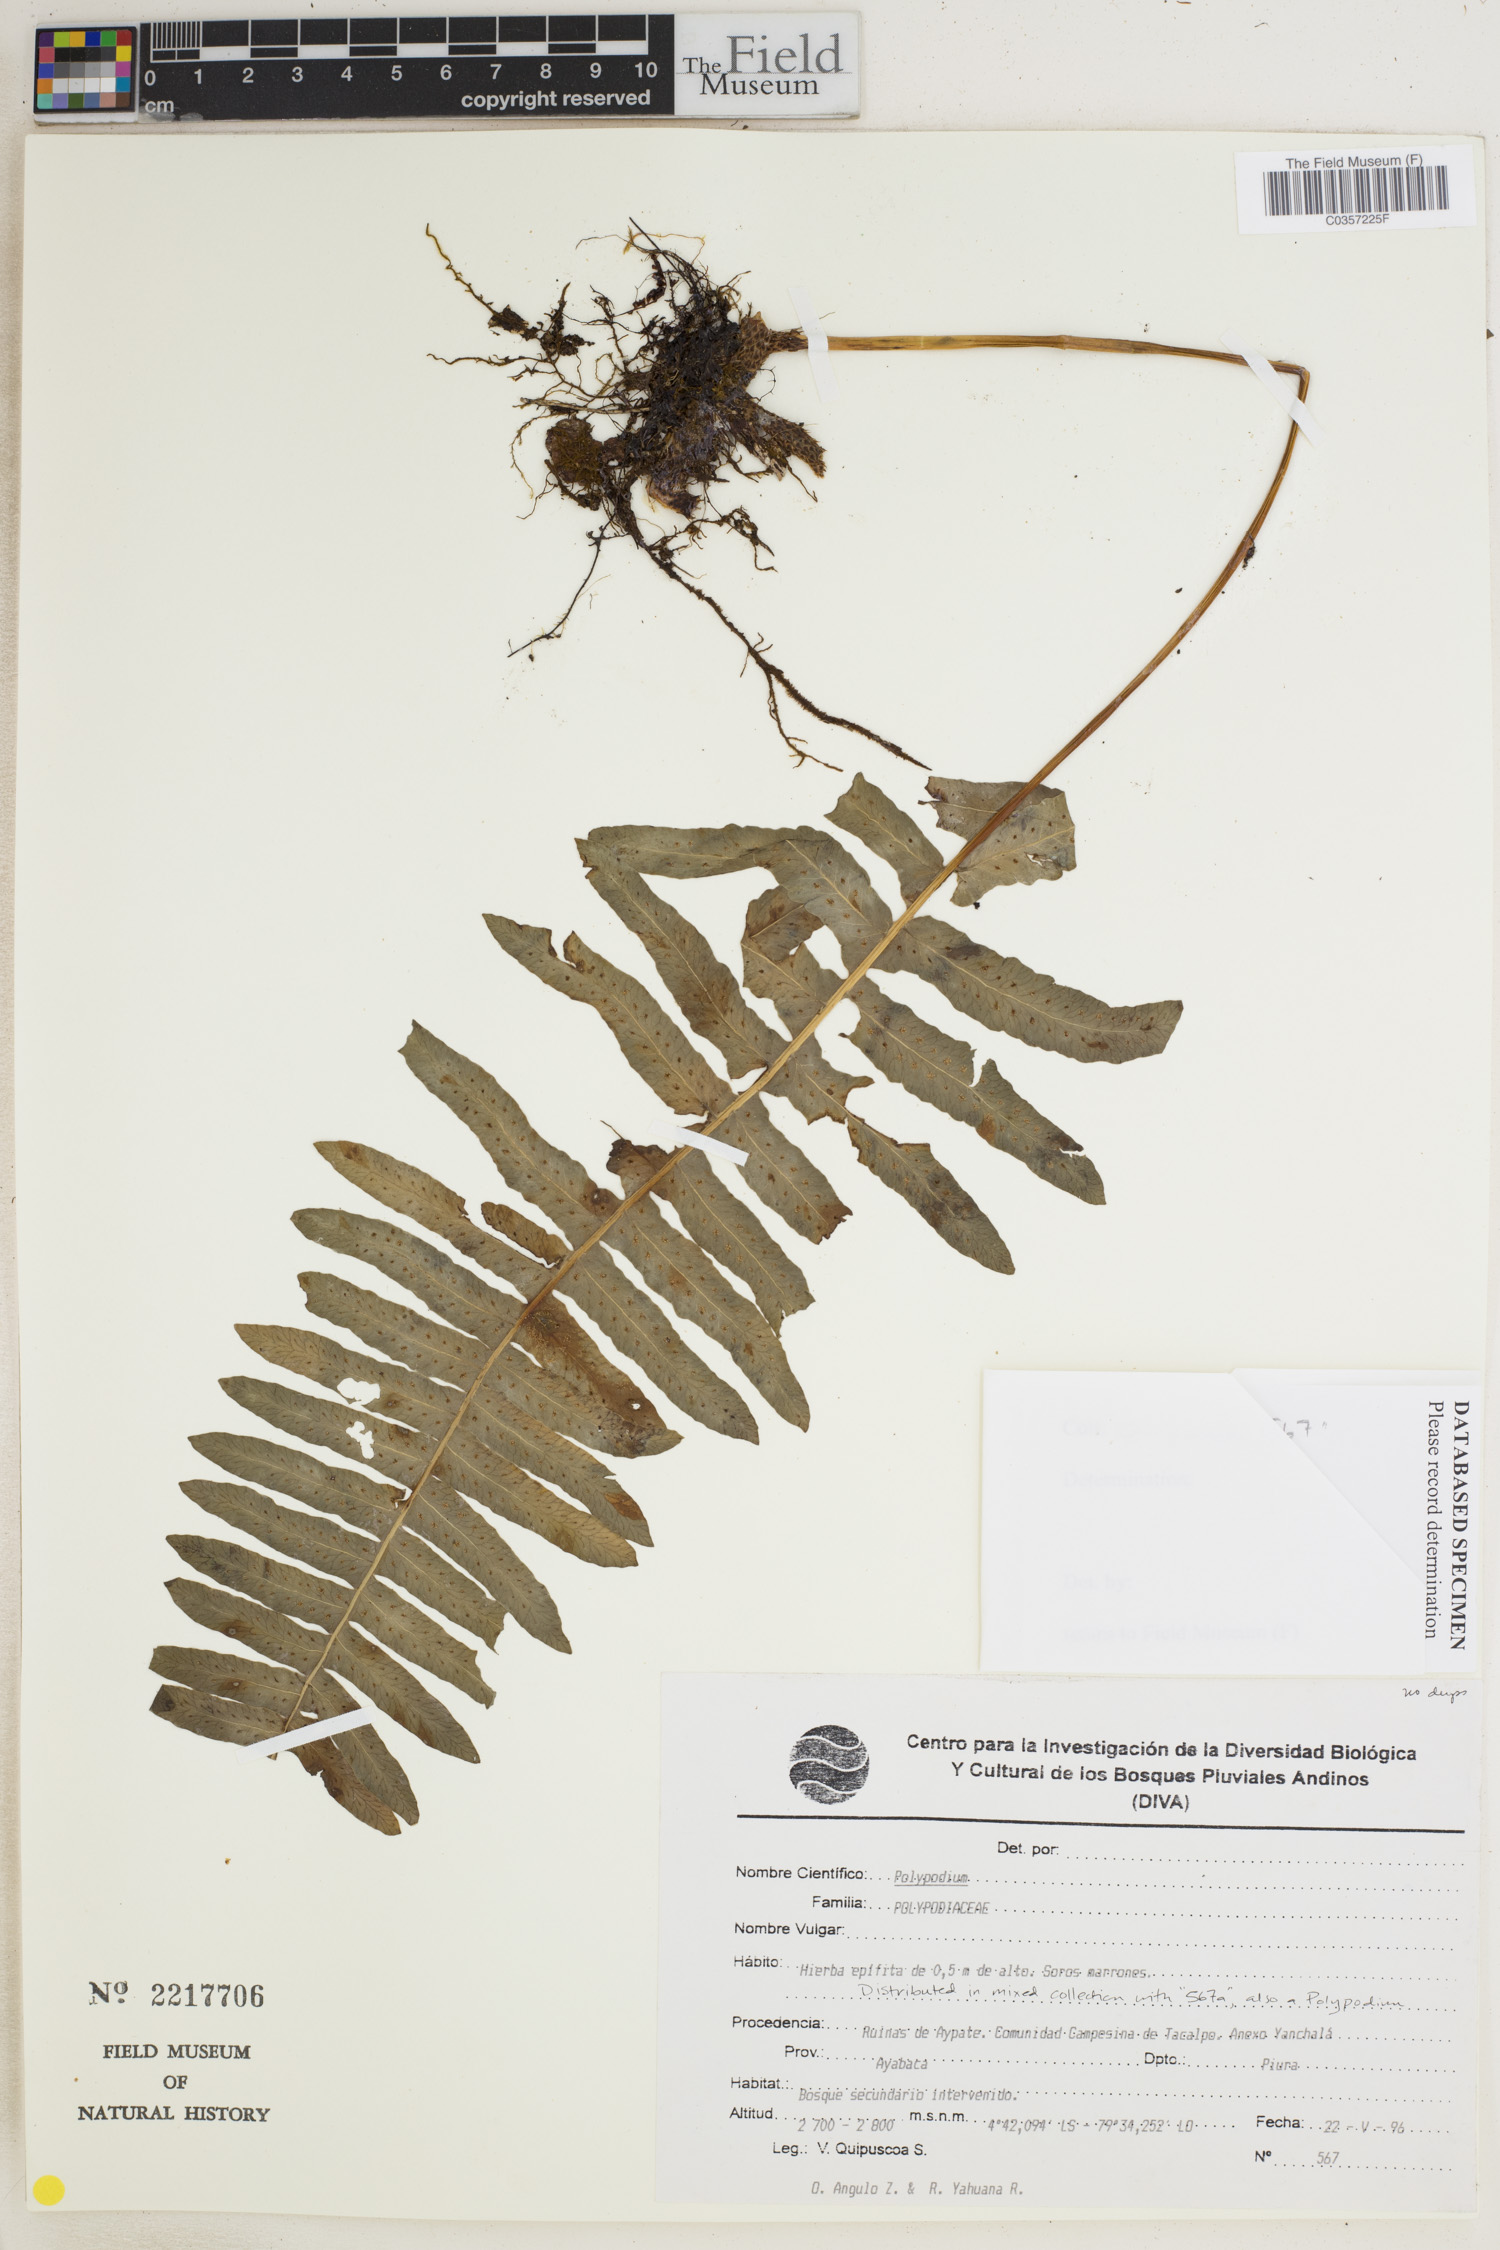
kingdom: Plantae
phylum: Tracheophyta
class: Polypodiopsida
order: Polypodiales
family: Polypodiaceae
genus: Serpocaulon
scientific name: Serpocaulon lasiopus
